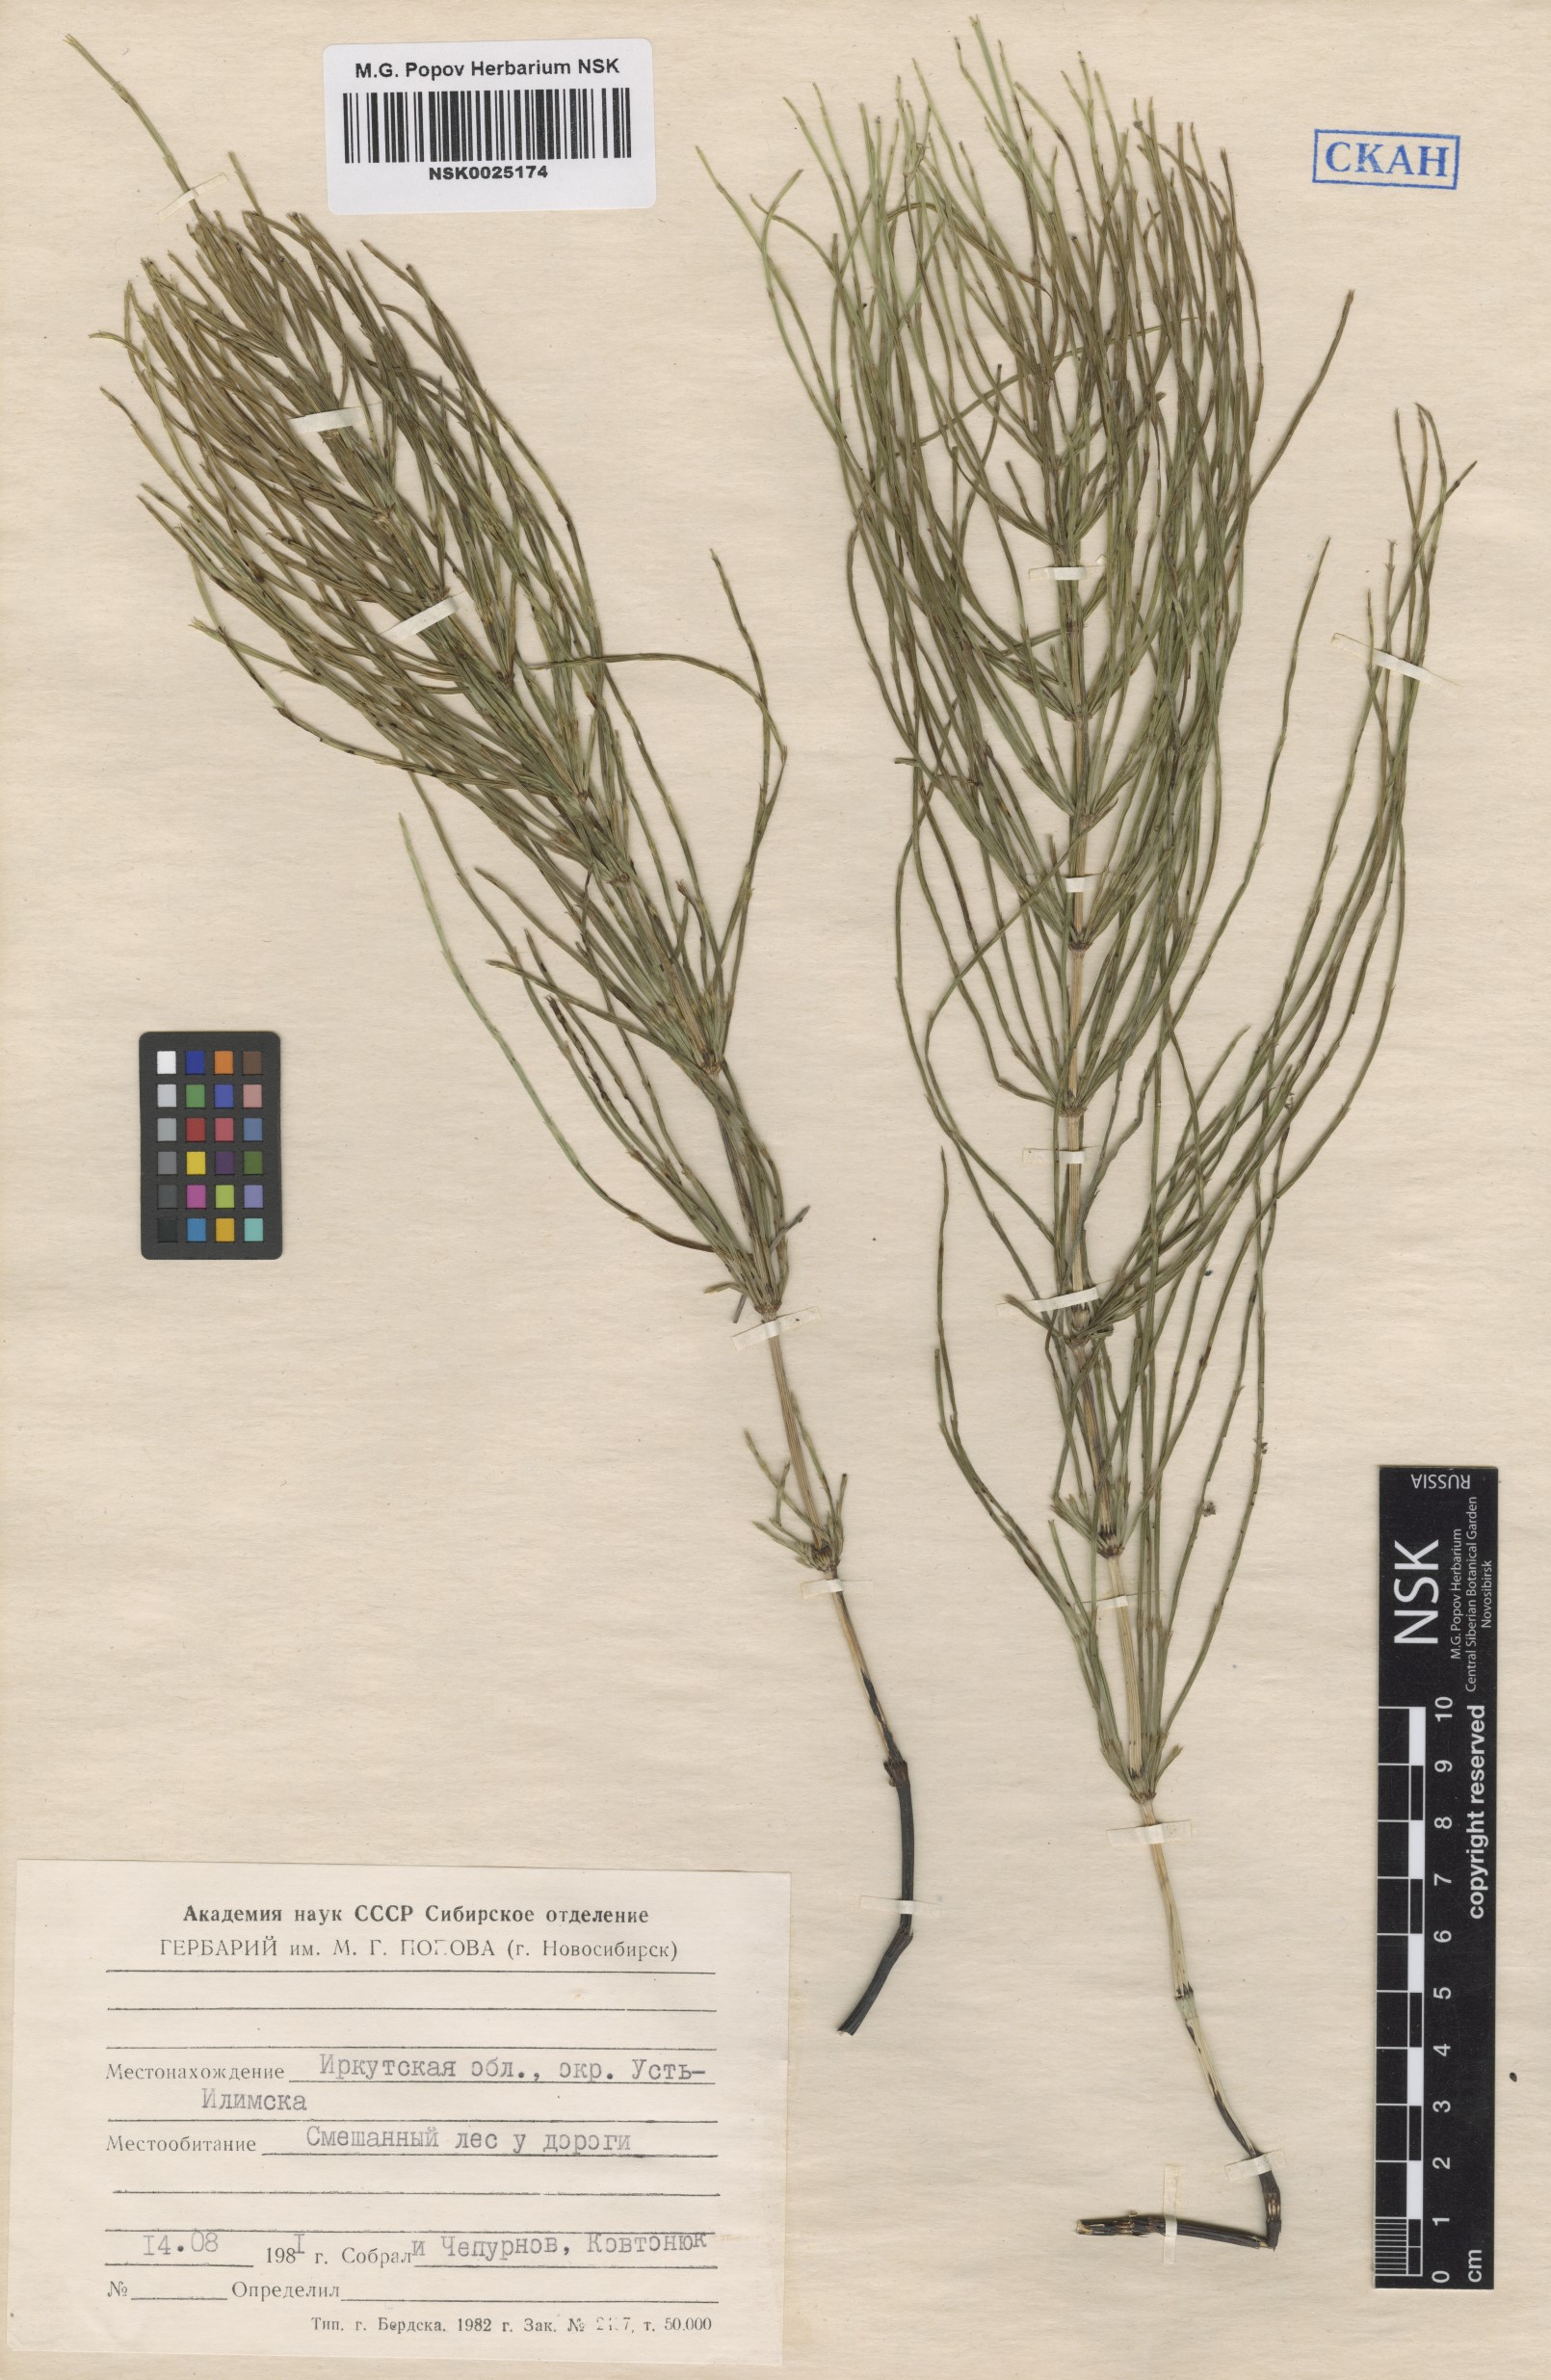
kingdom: Plantae
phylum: Tracheophyta
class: Polypodiopsida
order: Equisetales
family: Equisetaceae
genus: Equisetum
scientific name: Equisetum arvense
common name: Field horsetail
